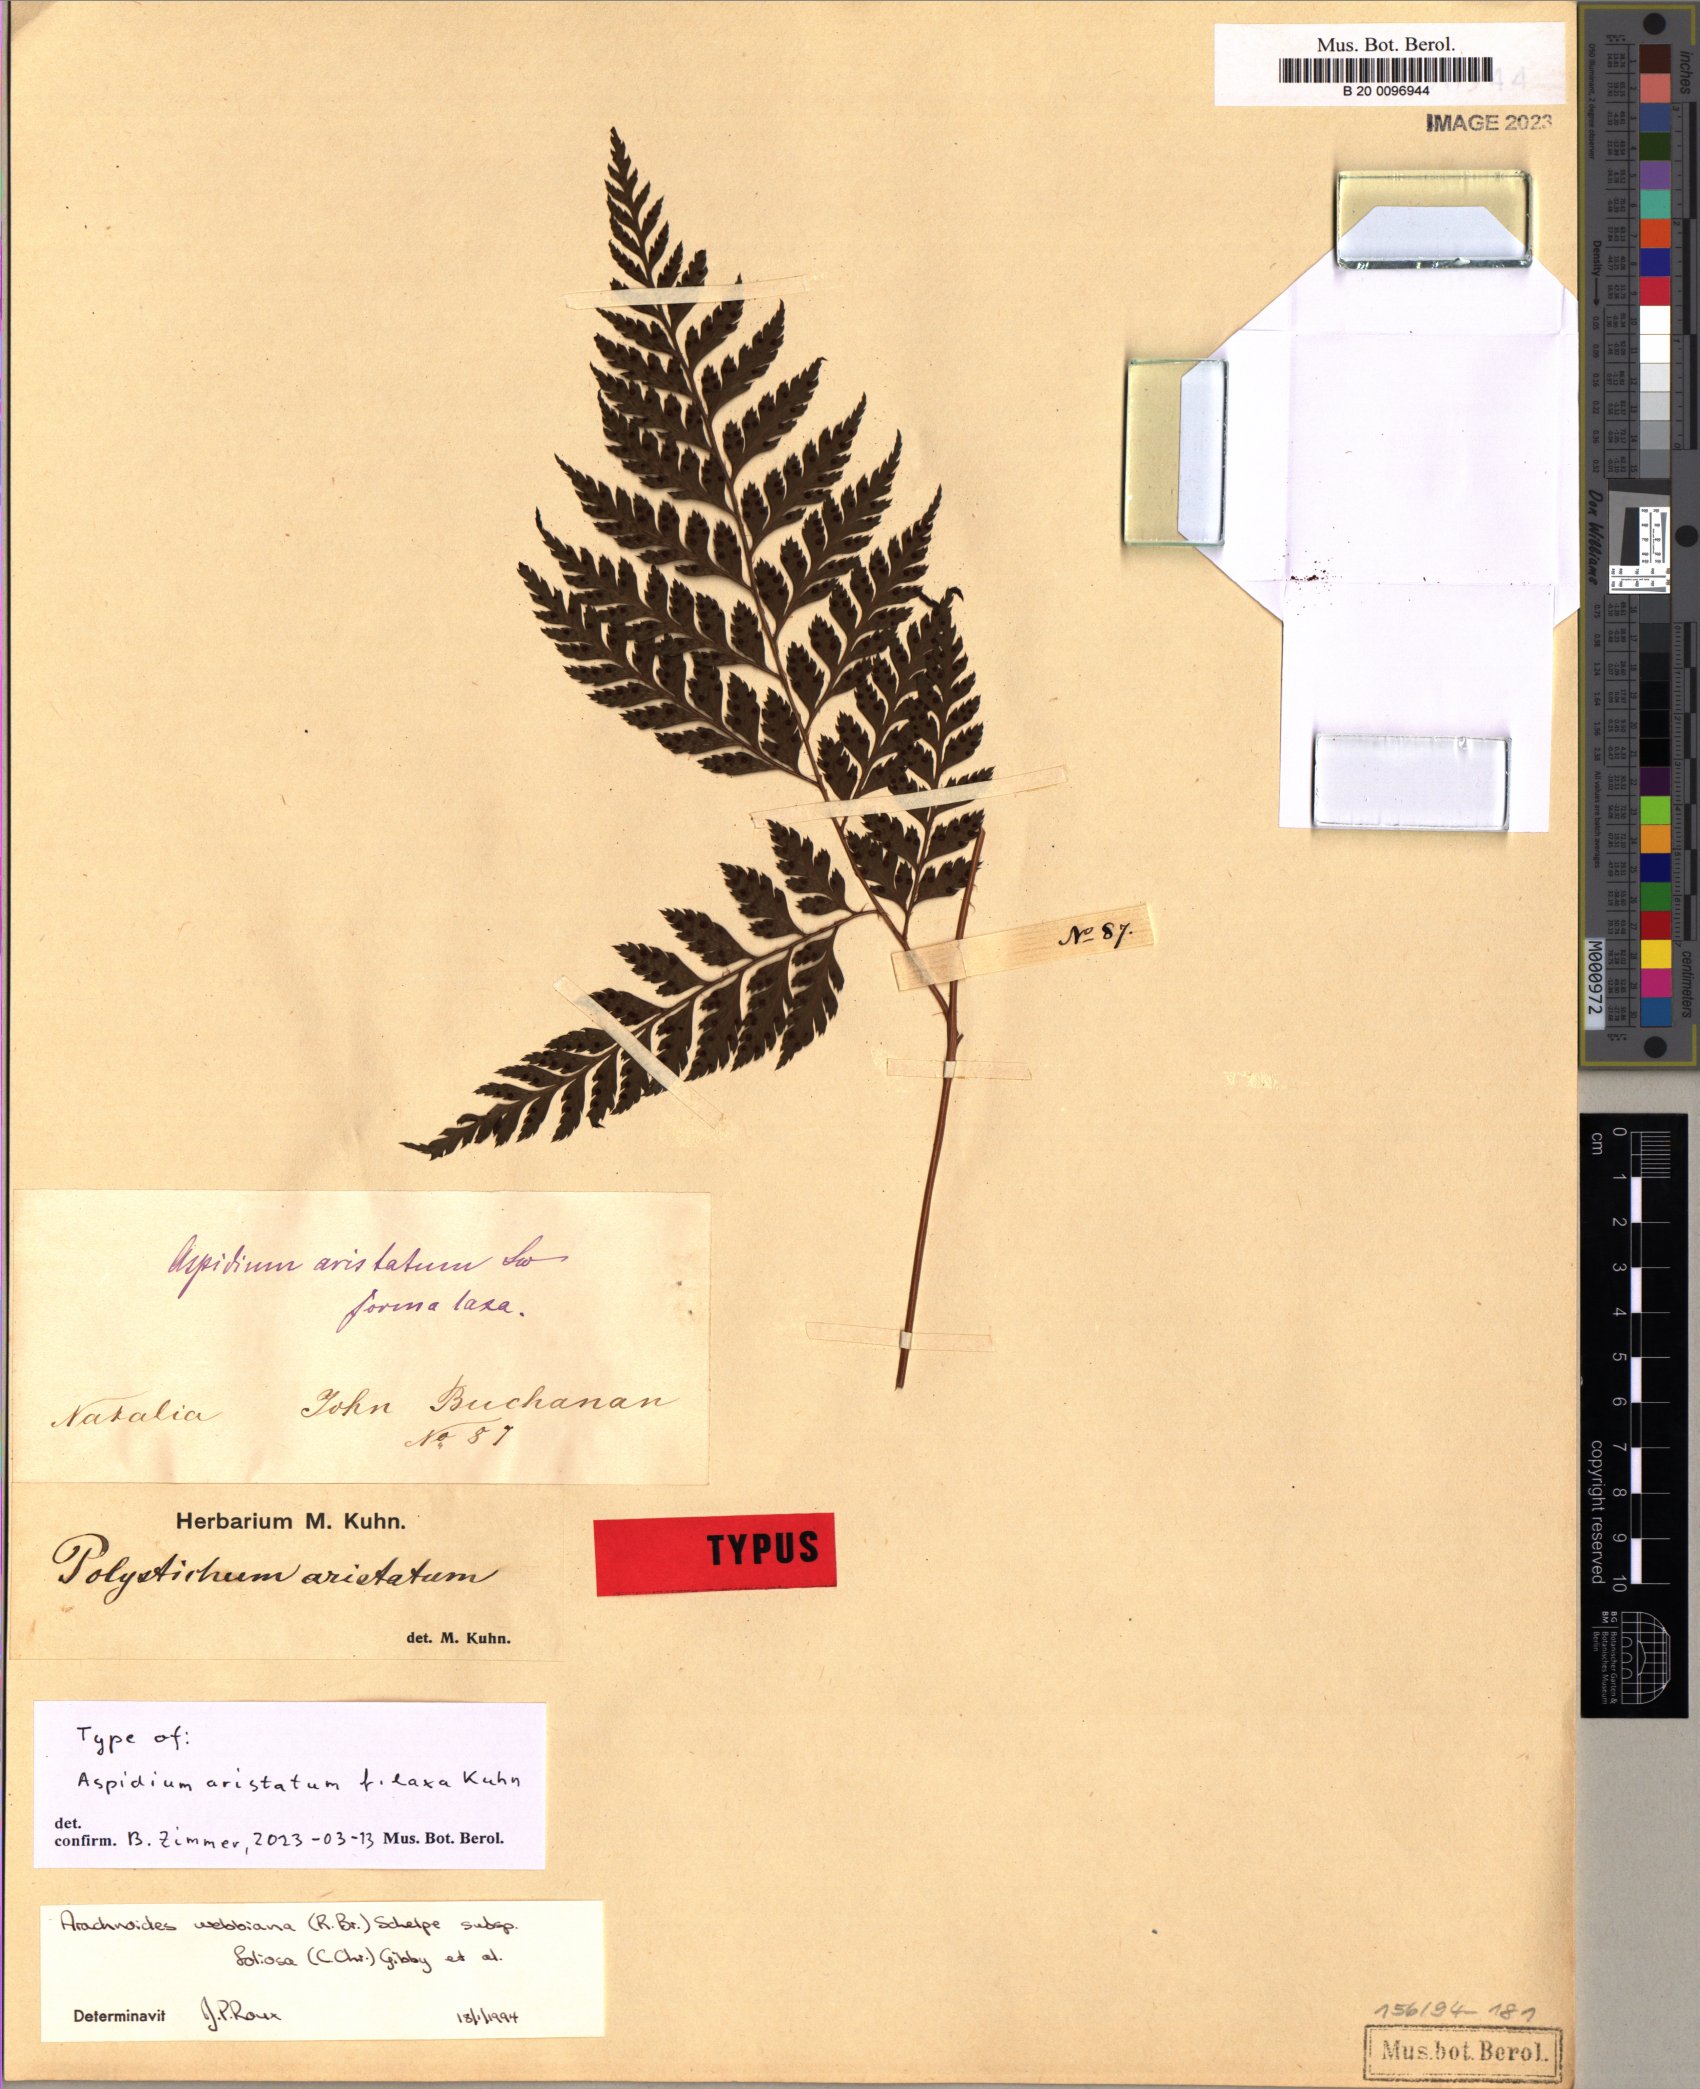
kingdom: Plantae
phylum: Tracheophyta
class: Polypodiopsida
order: Polypodiales
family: Dryopteridaceae
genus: Arachniodes
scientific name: Arachniodes webbiana
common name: Madeira holly fern
